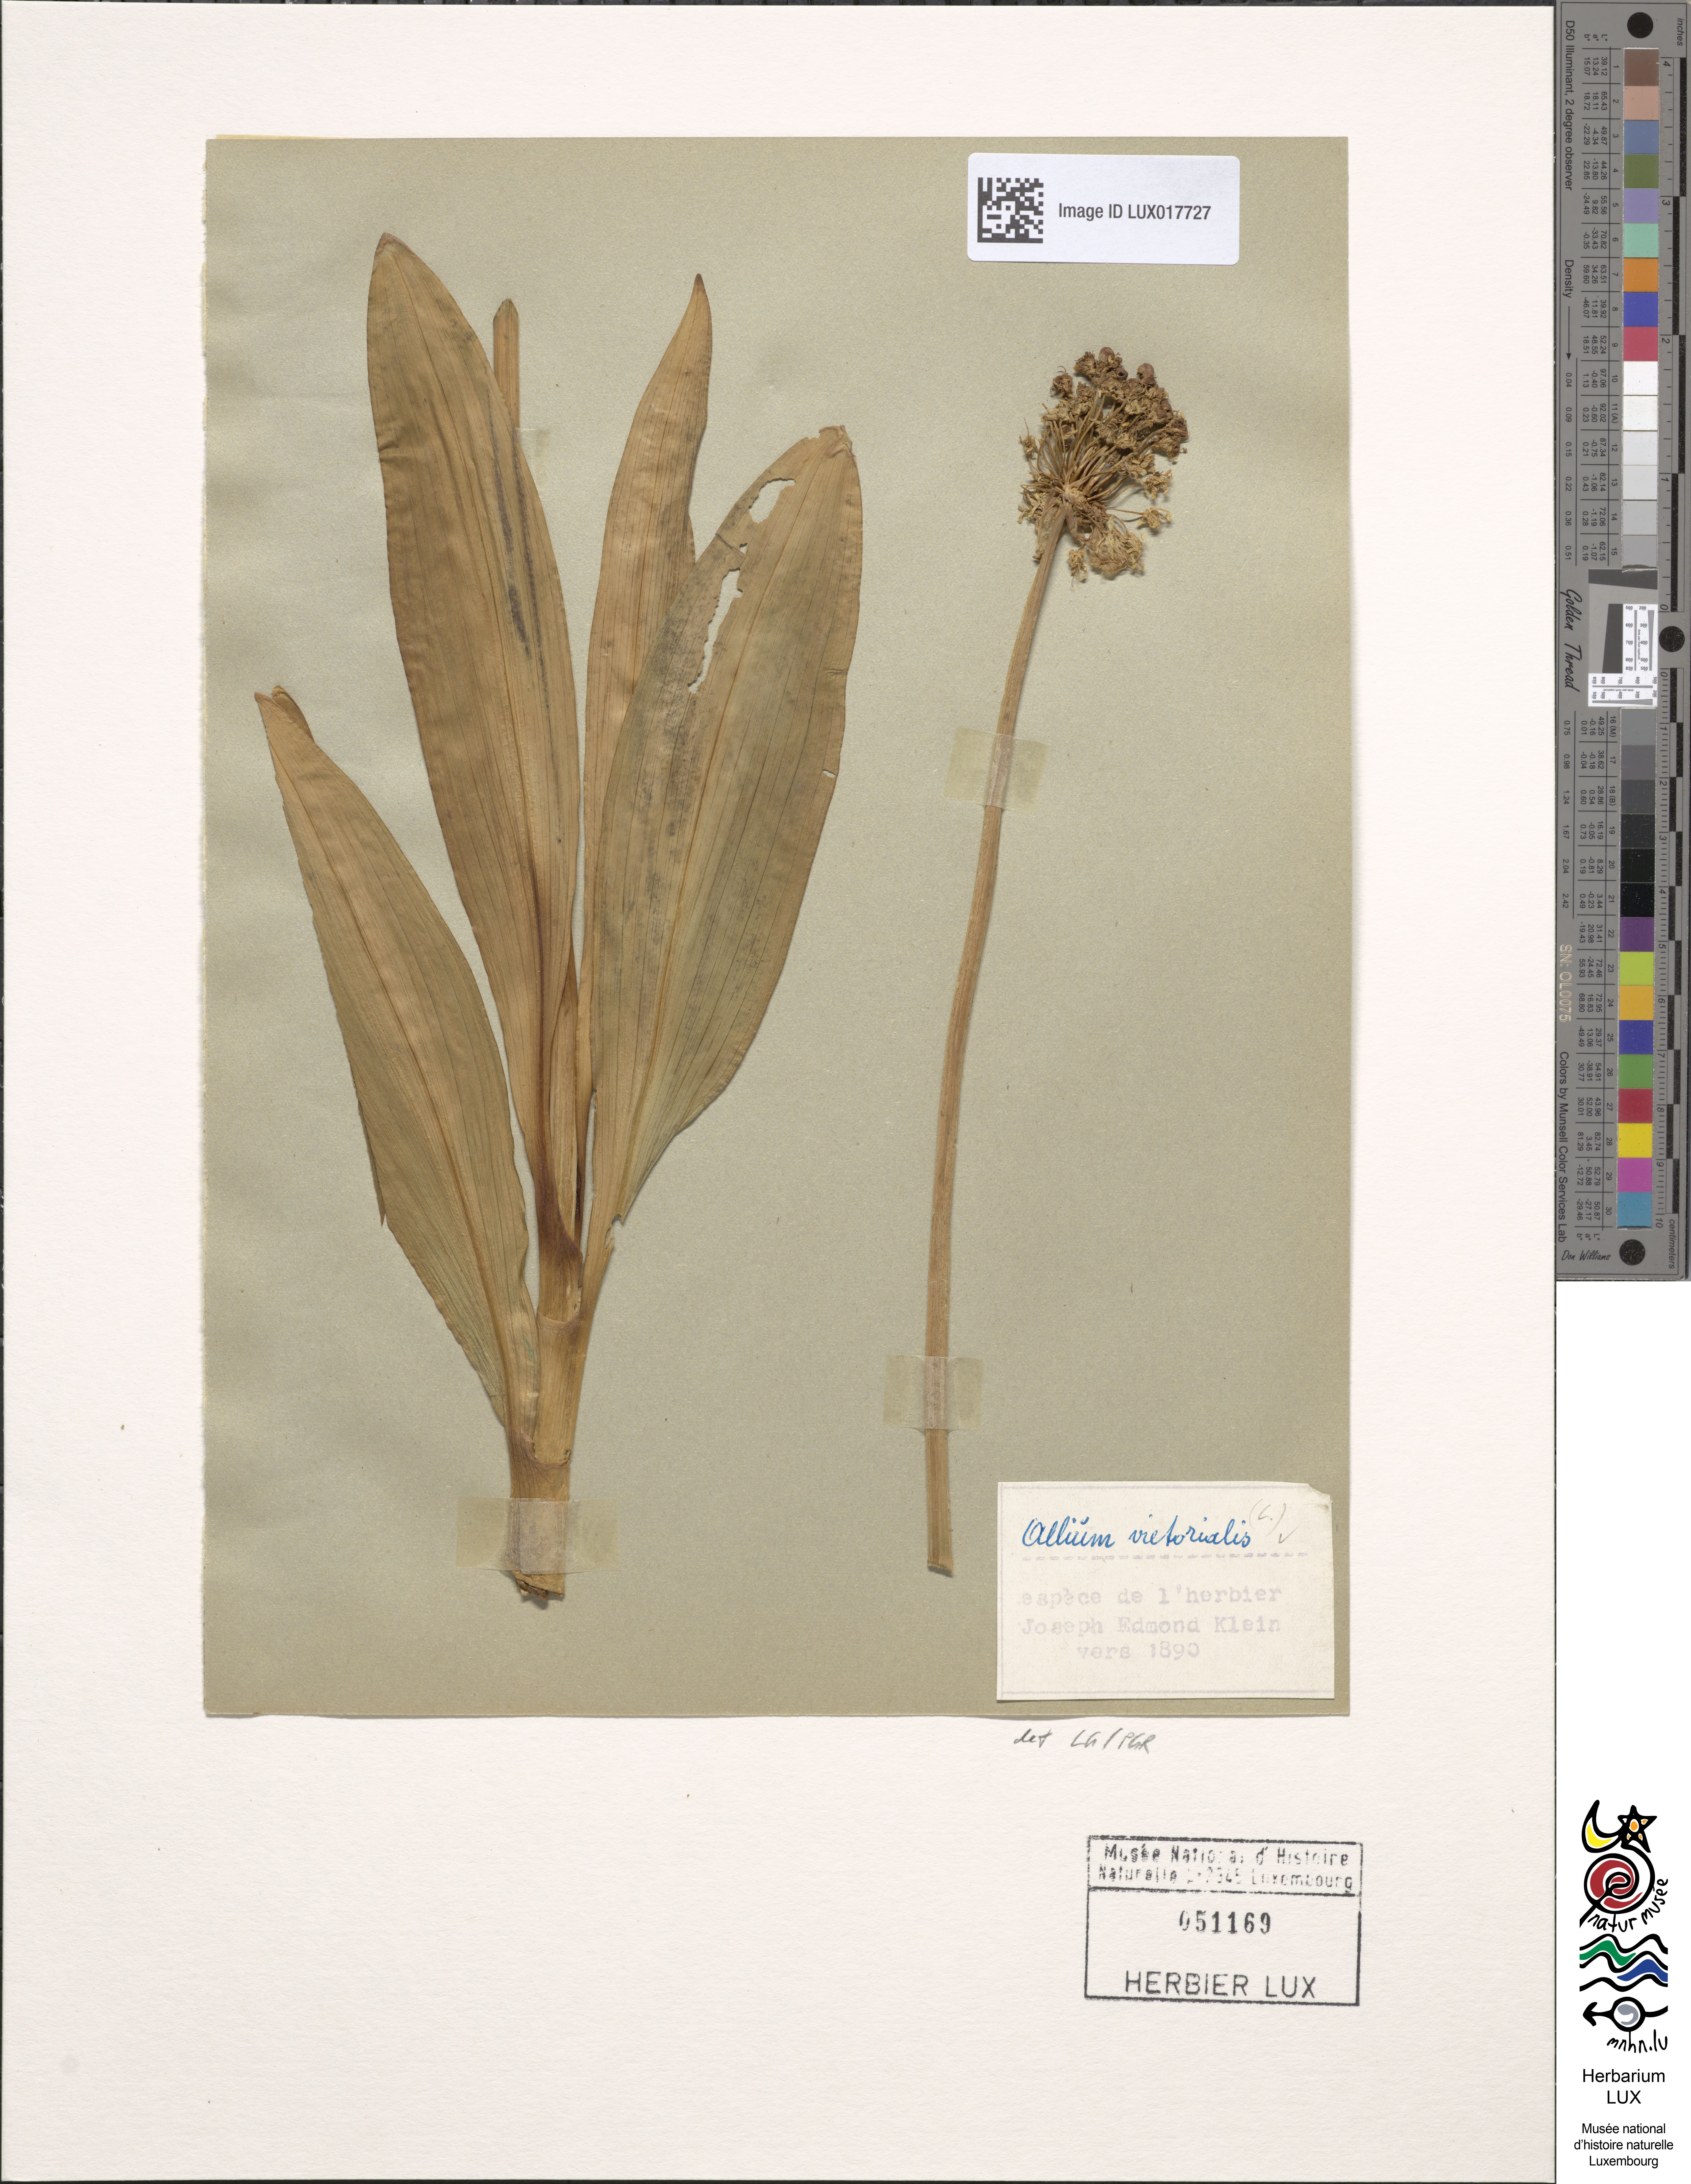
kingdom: Plantae
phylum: Tracheophyta
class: Liliopsida
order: Asparagales
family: Amaryllidaceae
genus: Allium
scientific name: Allium victorialis
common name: Alpine leek
